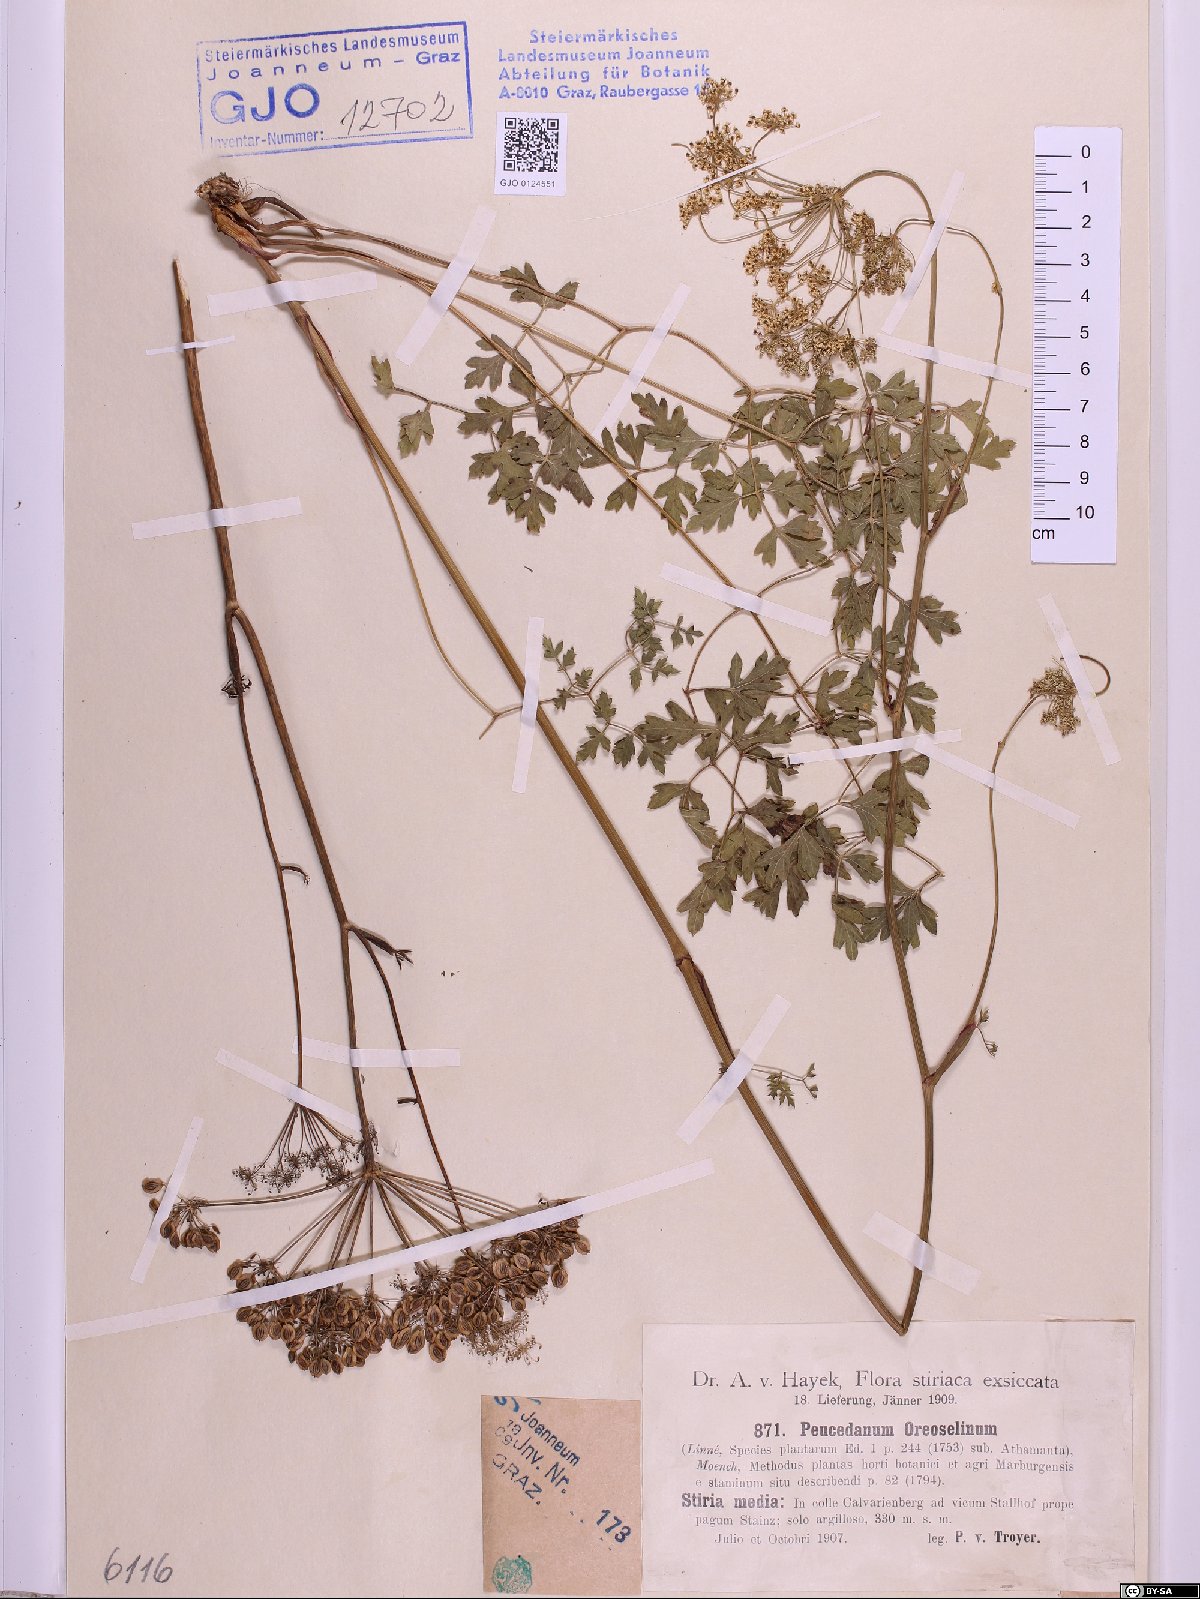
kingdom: Plantae
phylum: Tracheophyta
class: Magnoliopsida
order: Apiales
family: Apiaceae
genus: Oreoselinum
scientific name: Oreoselinum nigrum
